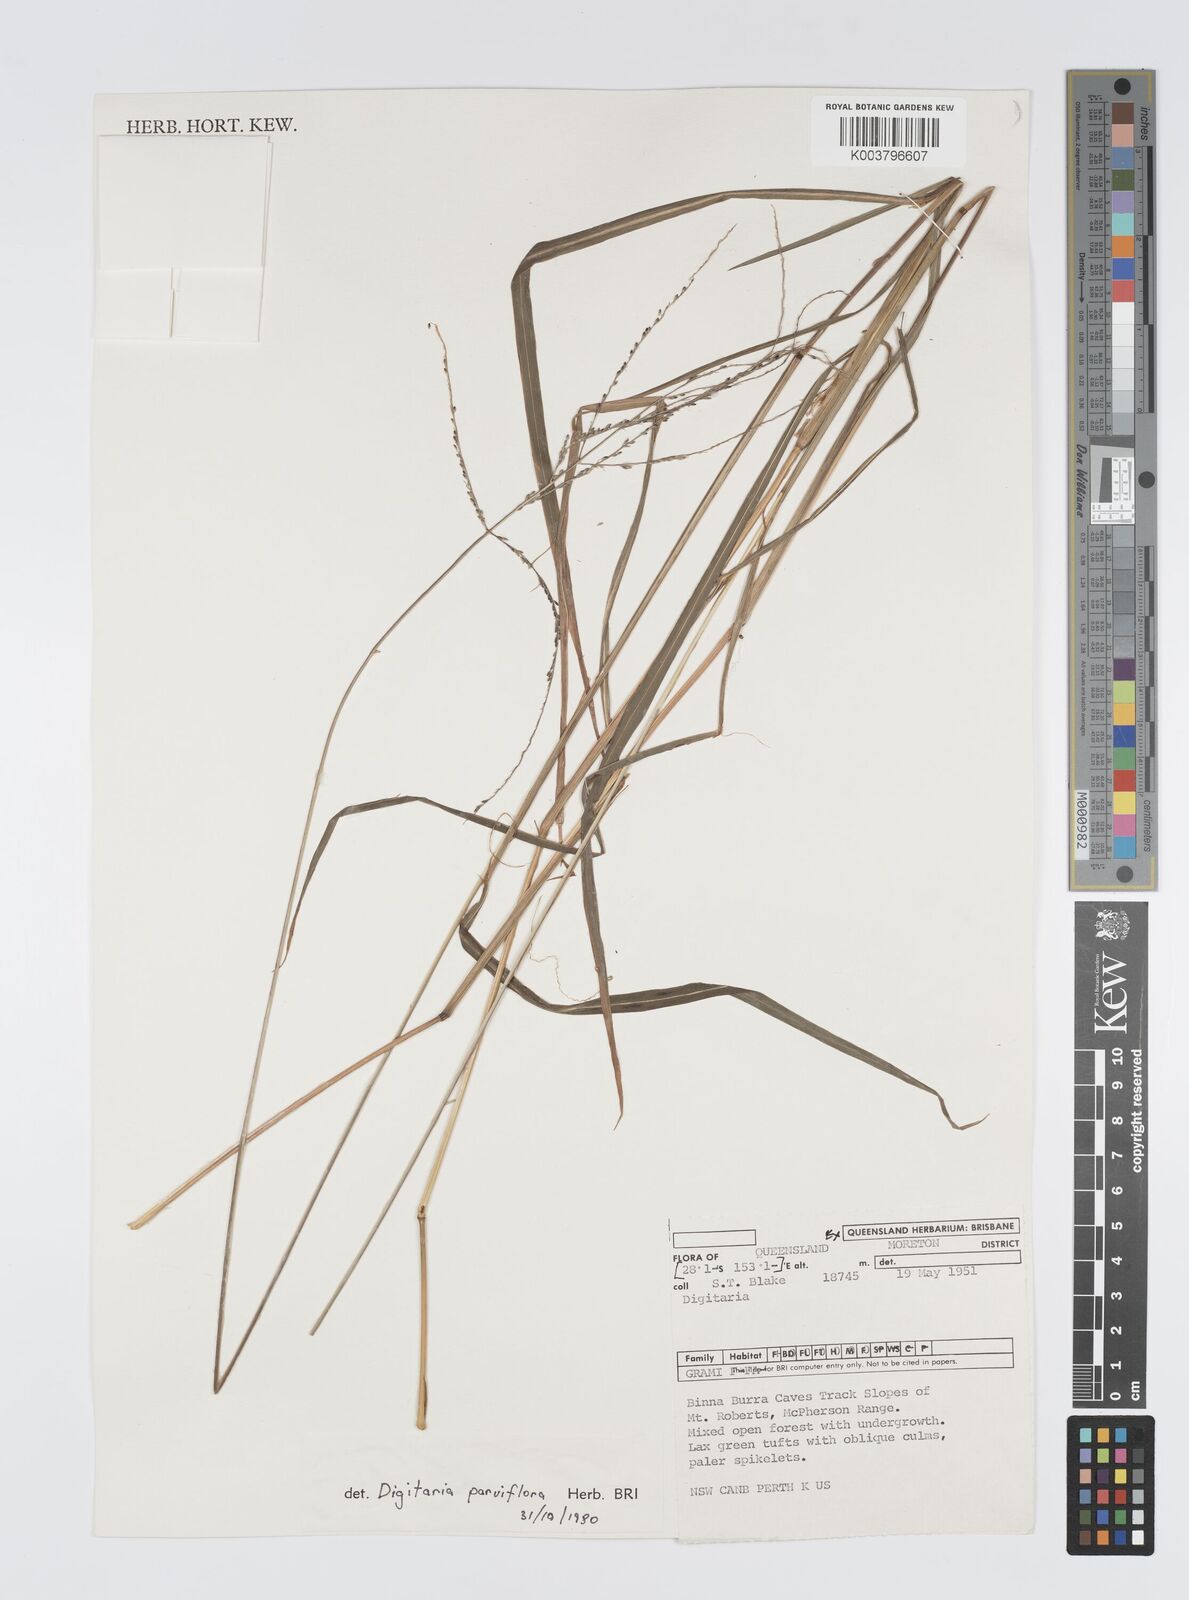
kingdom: Plantae
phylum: Tracheophyta
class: Liliopsida
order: Poales
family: Poaceae
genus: Digitaria
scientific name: Digitaria parviflora
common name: Small-flower finger grass
